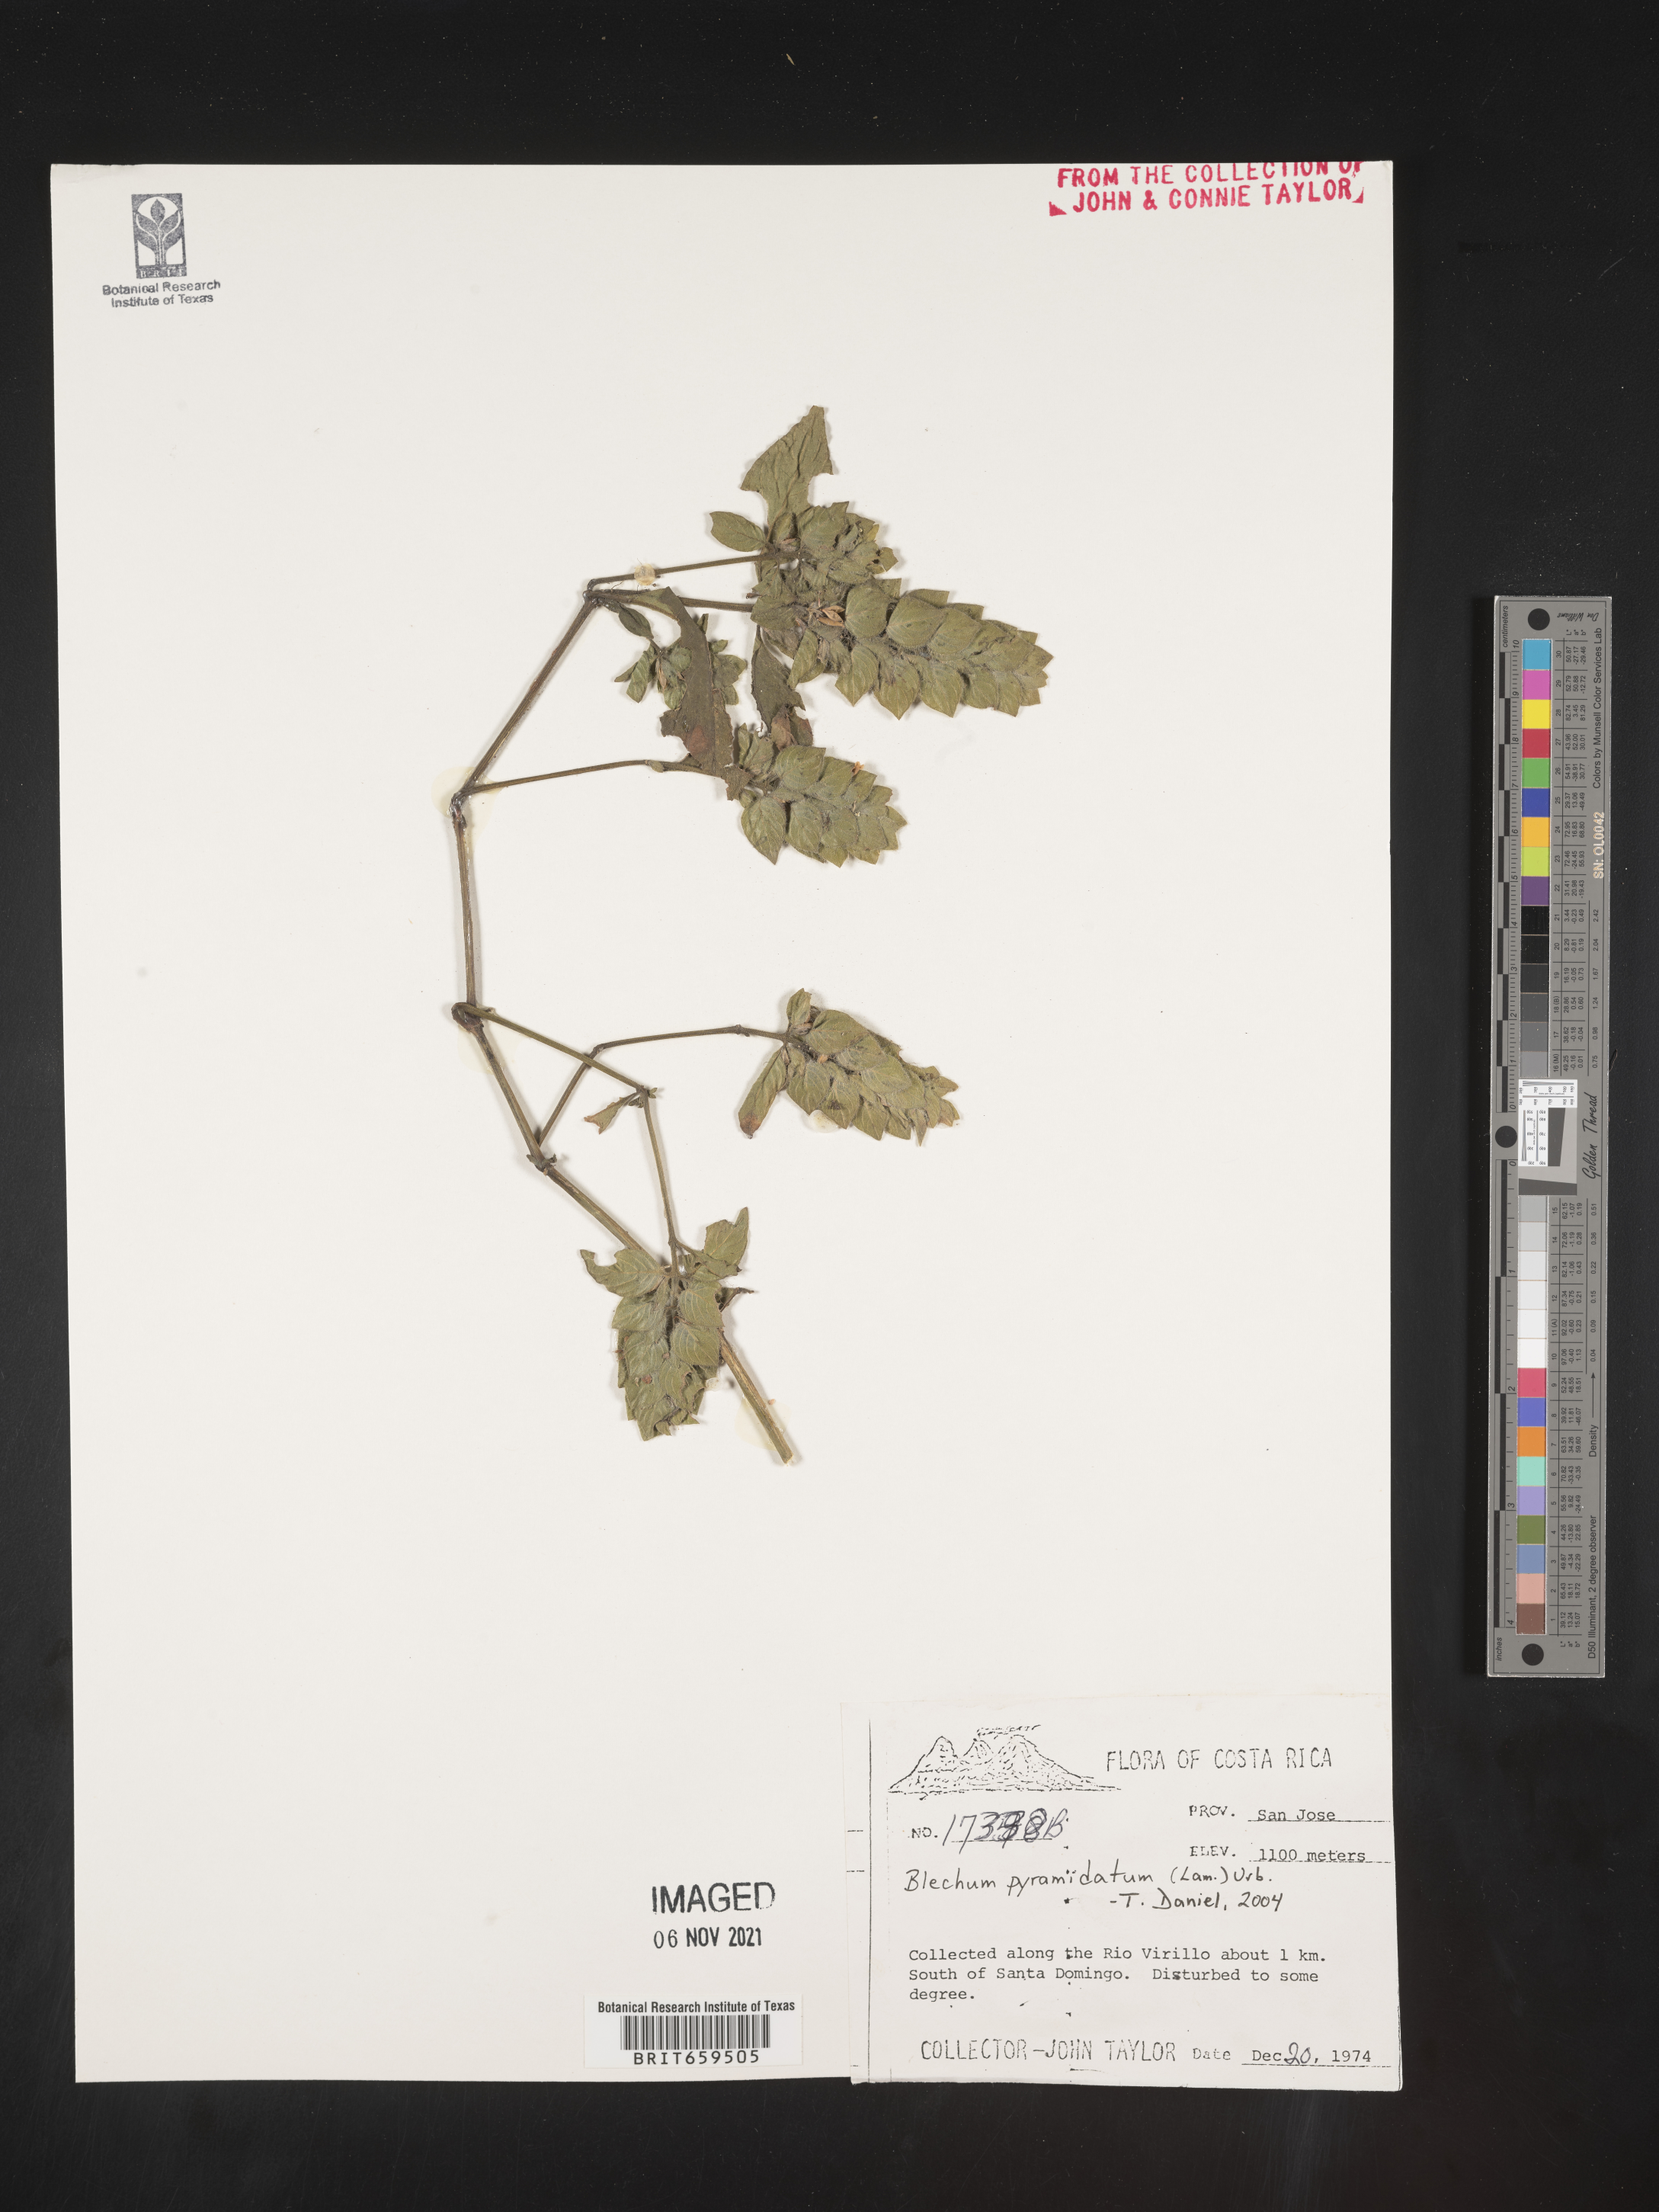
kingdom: Plantae
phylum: Tracheophyta
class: Polypodiopsida
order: Polypodiales
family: Blechnaceae
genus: Blechum
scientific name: Blechum
